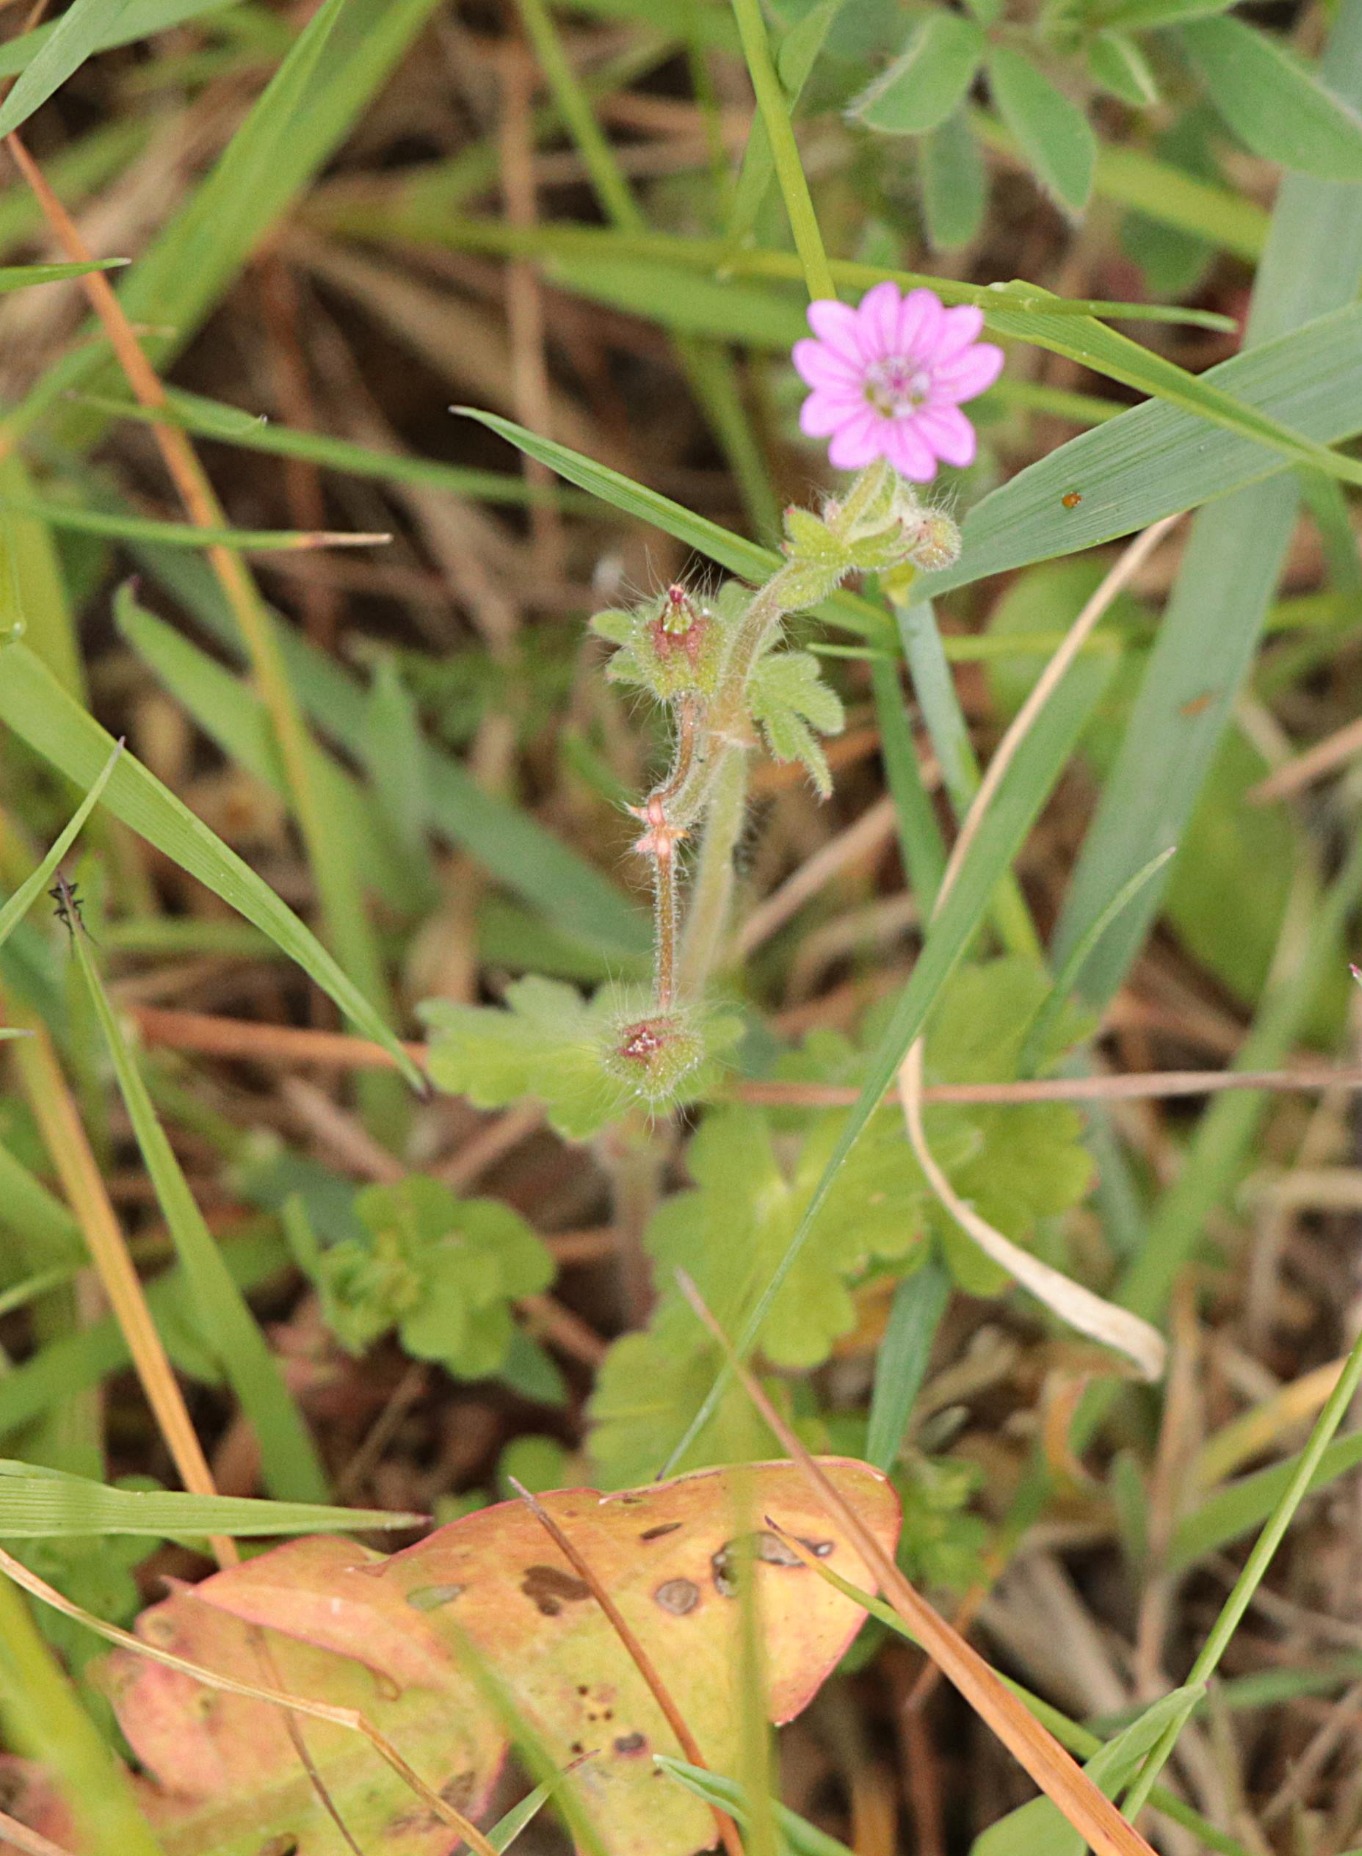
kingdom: Plantae
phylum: Tracheophyta
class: Magnoliopsida
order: Geraniales
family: Geraniaceae
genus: Geranium
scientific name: Geranium molle
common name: Blød storkenæb
